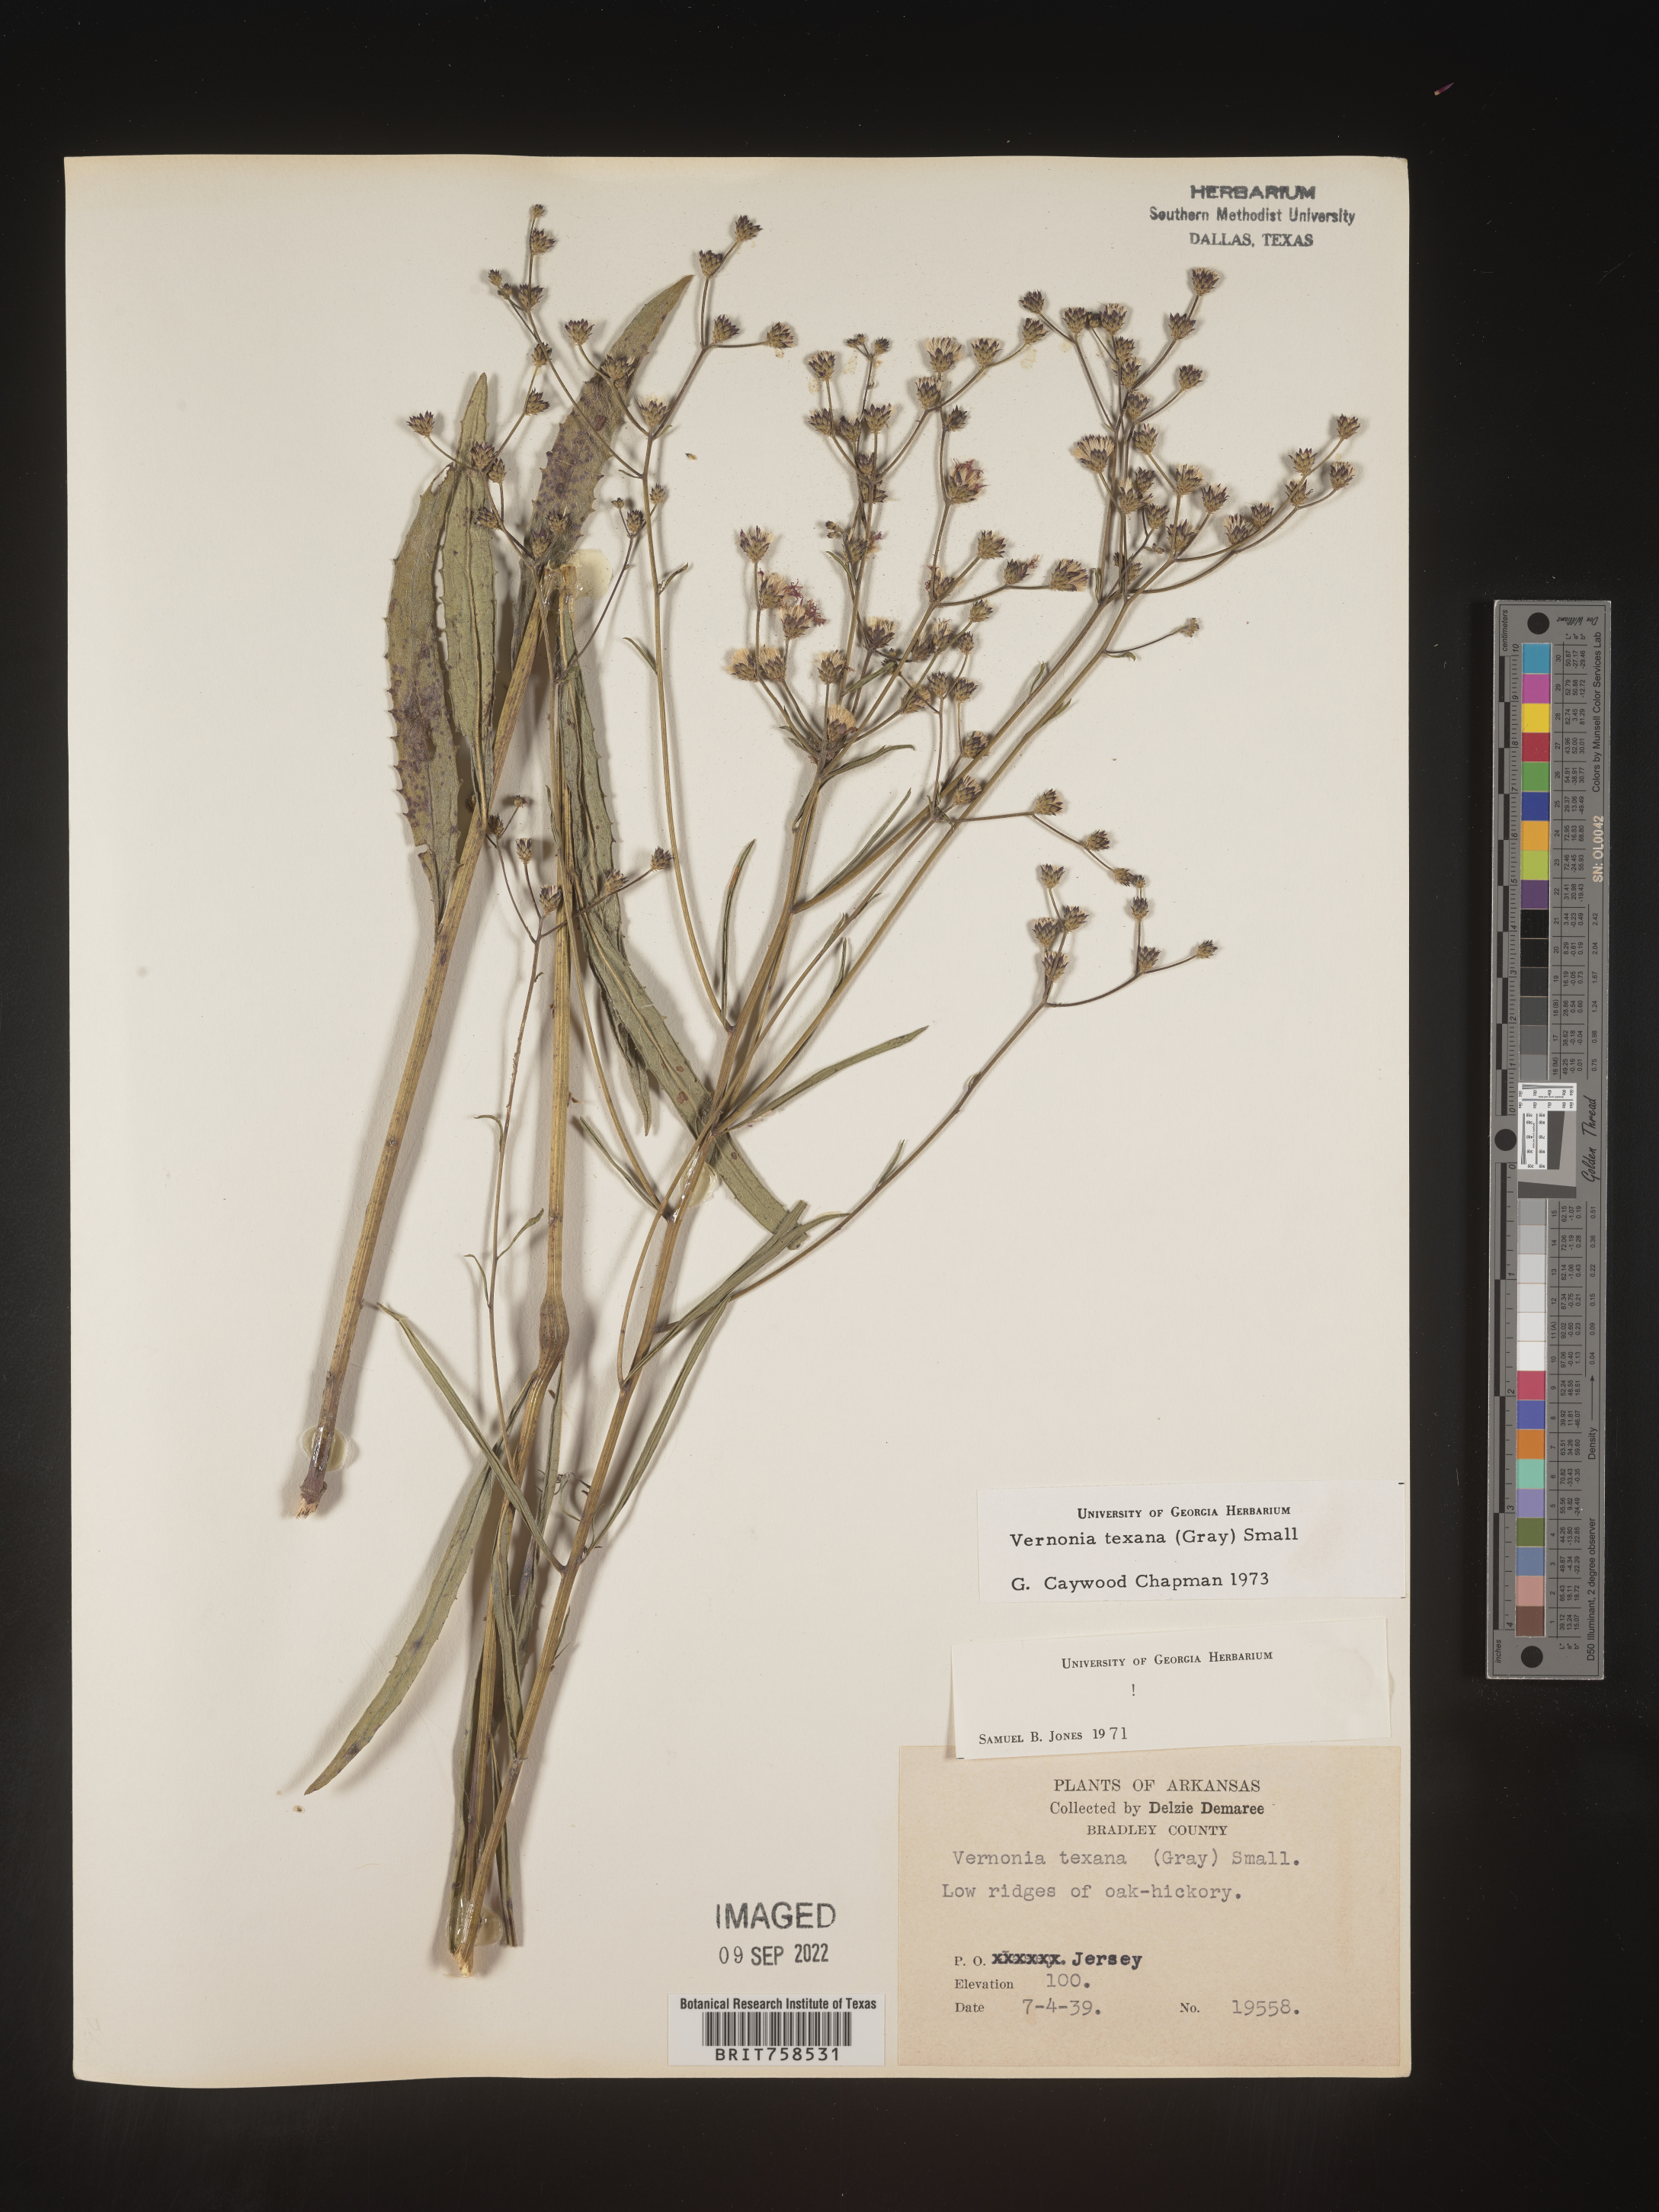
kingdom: Plantae
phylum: Tracheophyta
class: Magnoliopsida
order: Asterales
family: Asteraceae
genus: Vernonia
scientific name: Vernonia texana
